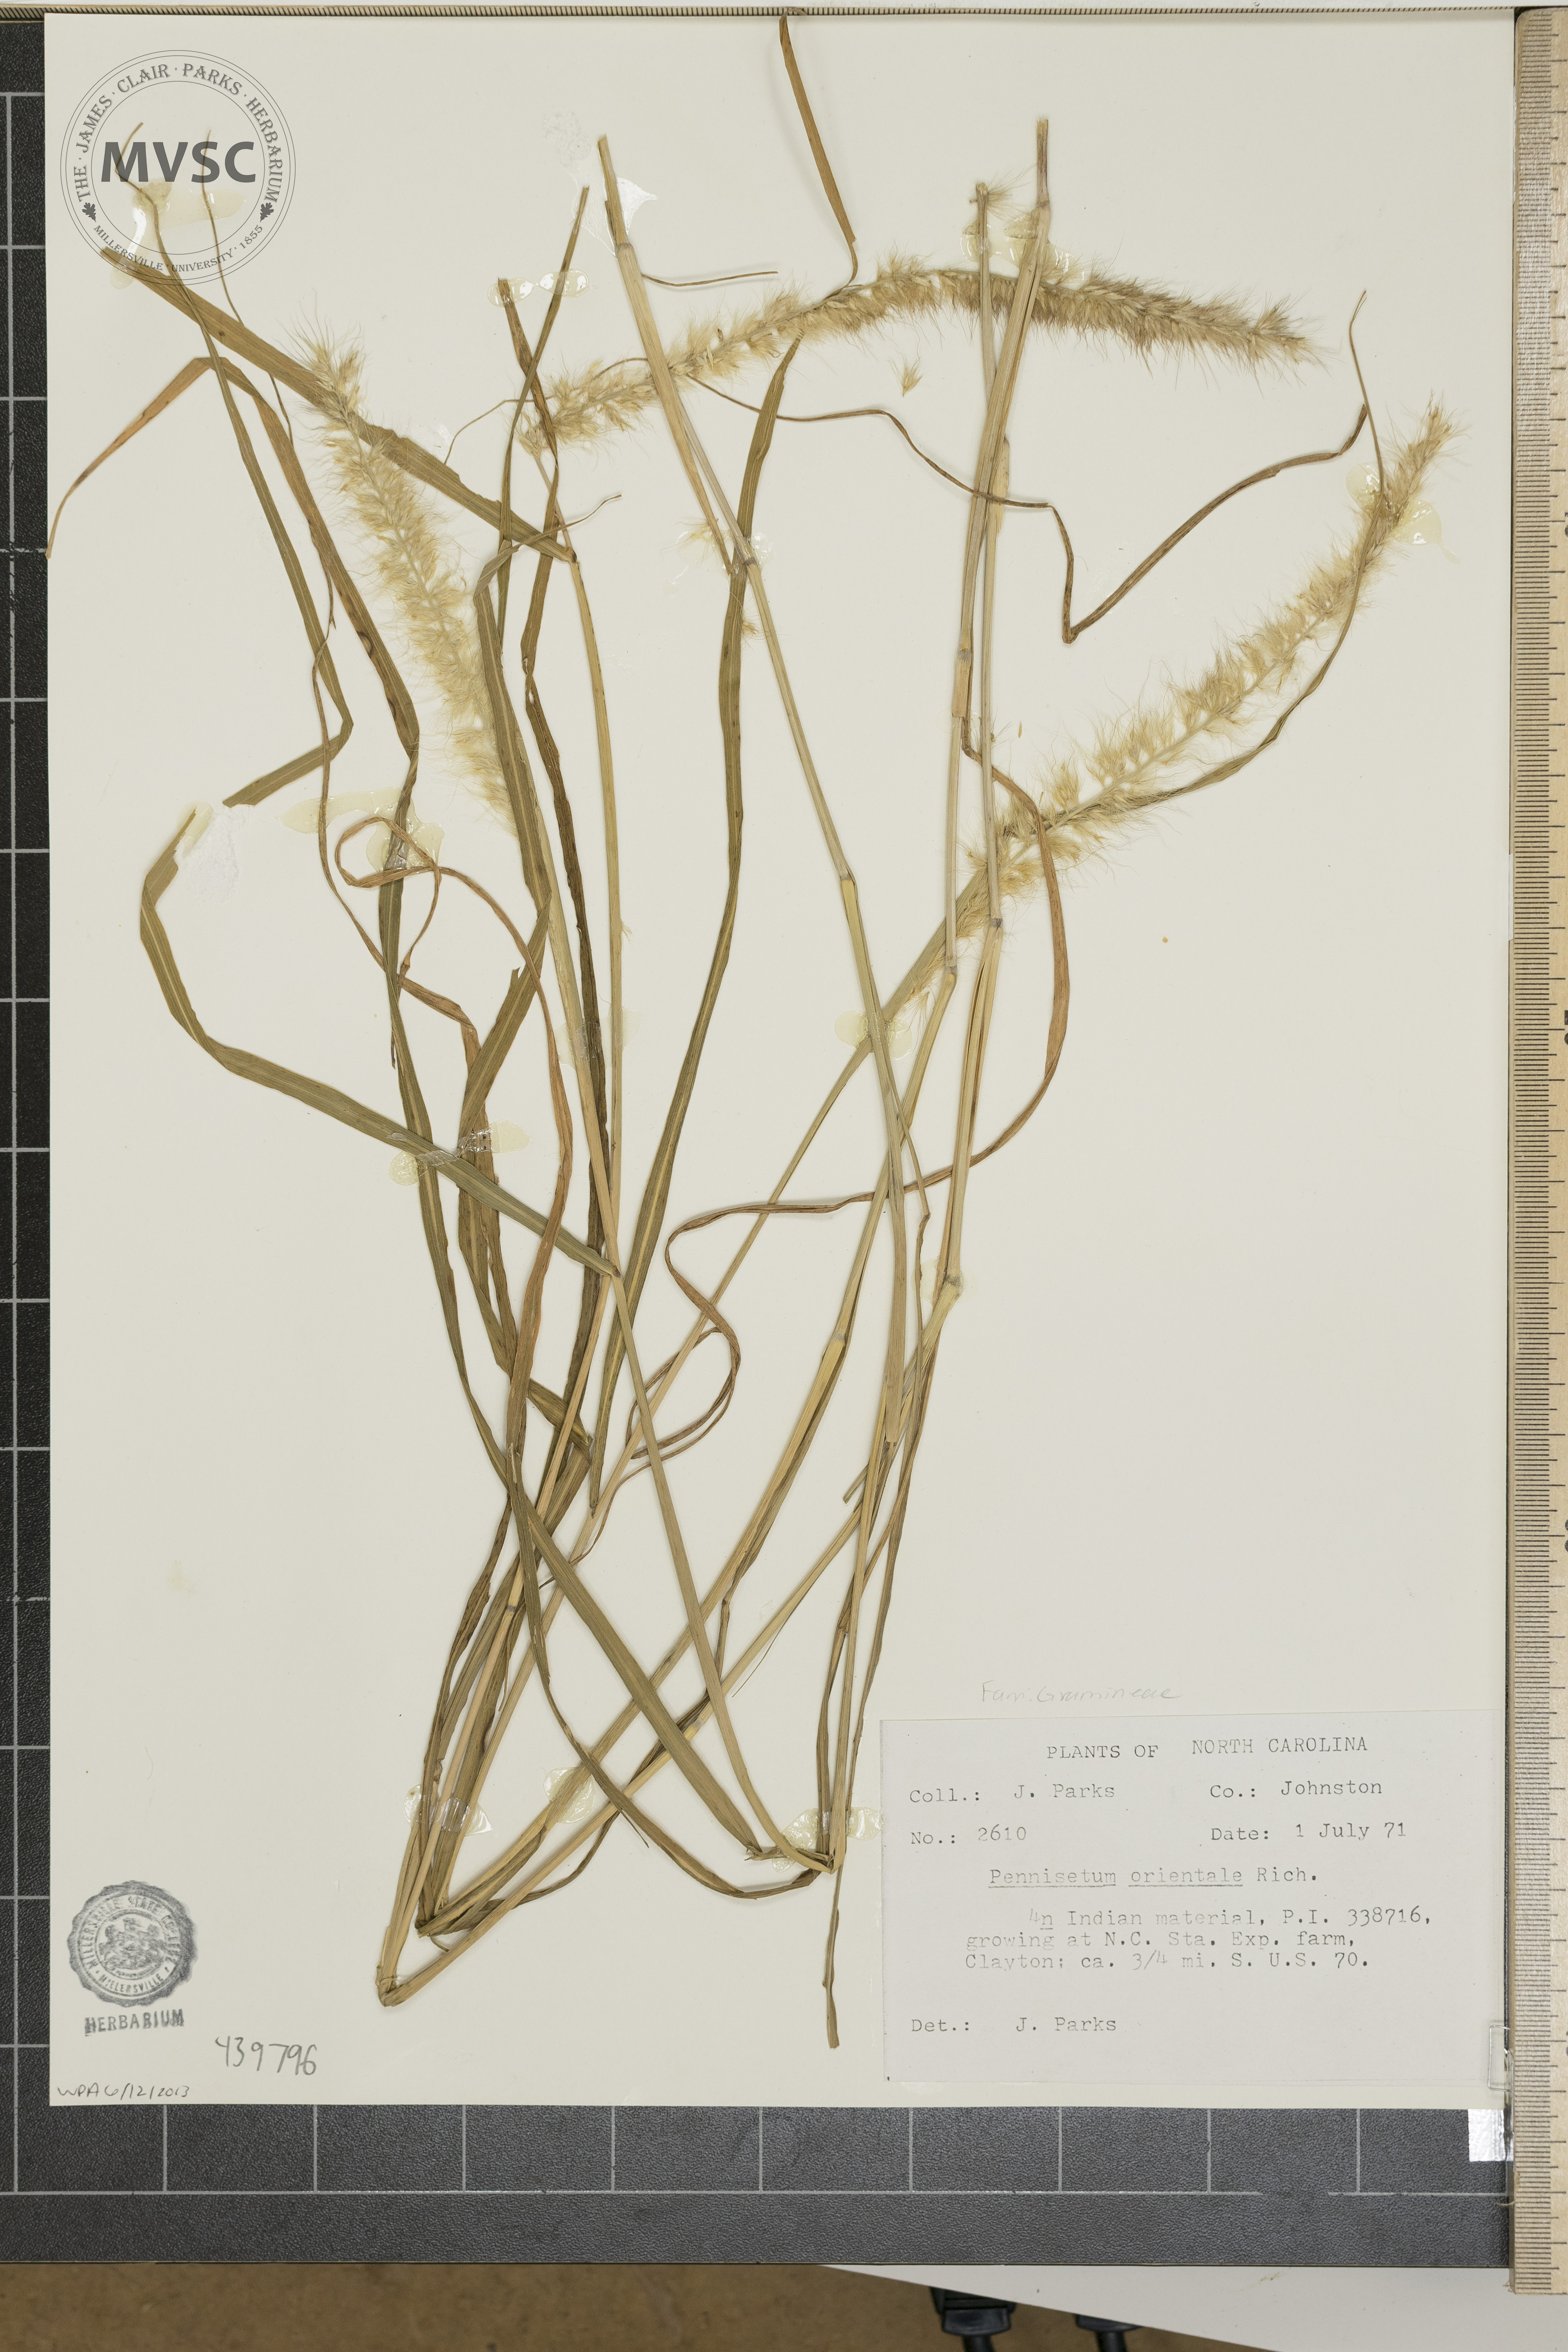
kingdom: Plantae
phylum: Tracheophyta
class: Liliopsida
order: Poales
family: Poaceae
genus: Cenchrus
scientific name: Cenchrus orientalis
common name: Oriental fountain grass
